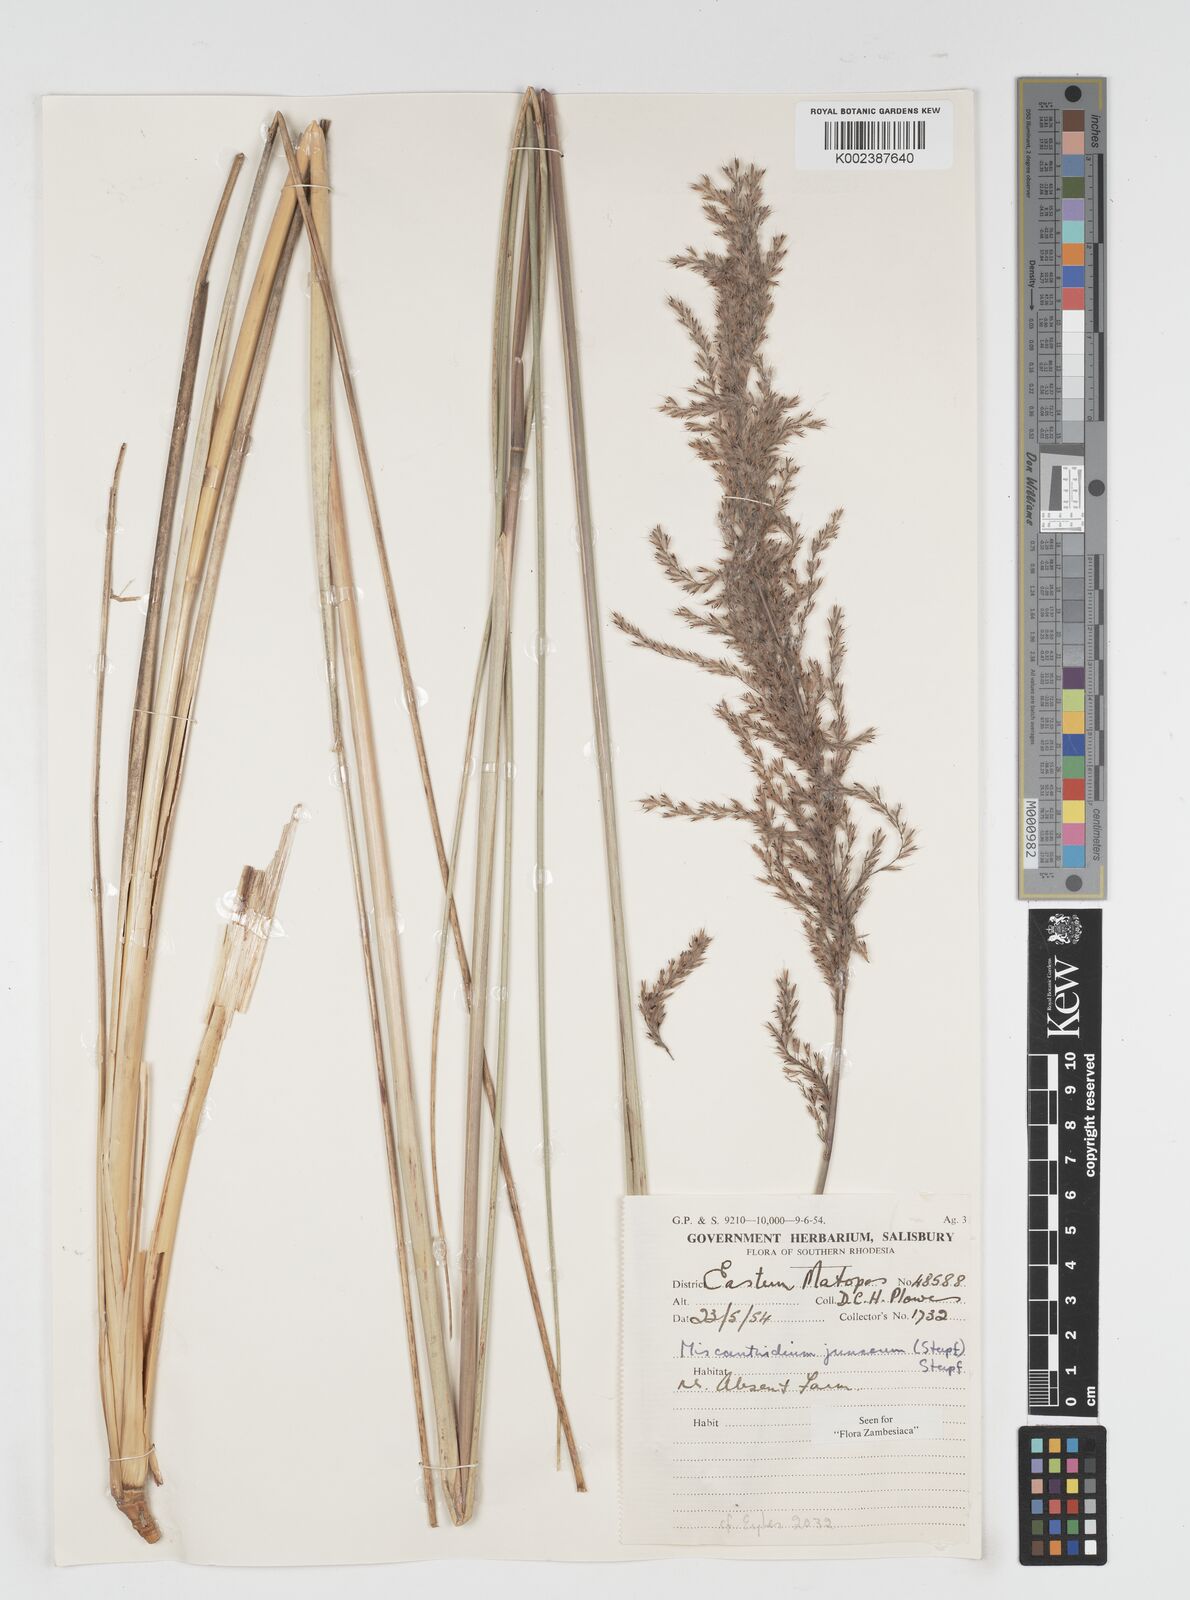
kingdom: Plantae
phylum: Tracheophyta
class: Liliopsida
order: Poales
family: Poaceae
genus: Miscanthidium
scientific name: Miscanthidium junceum
